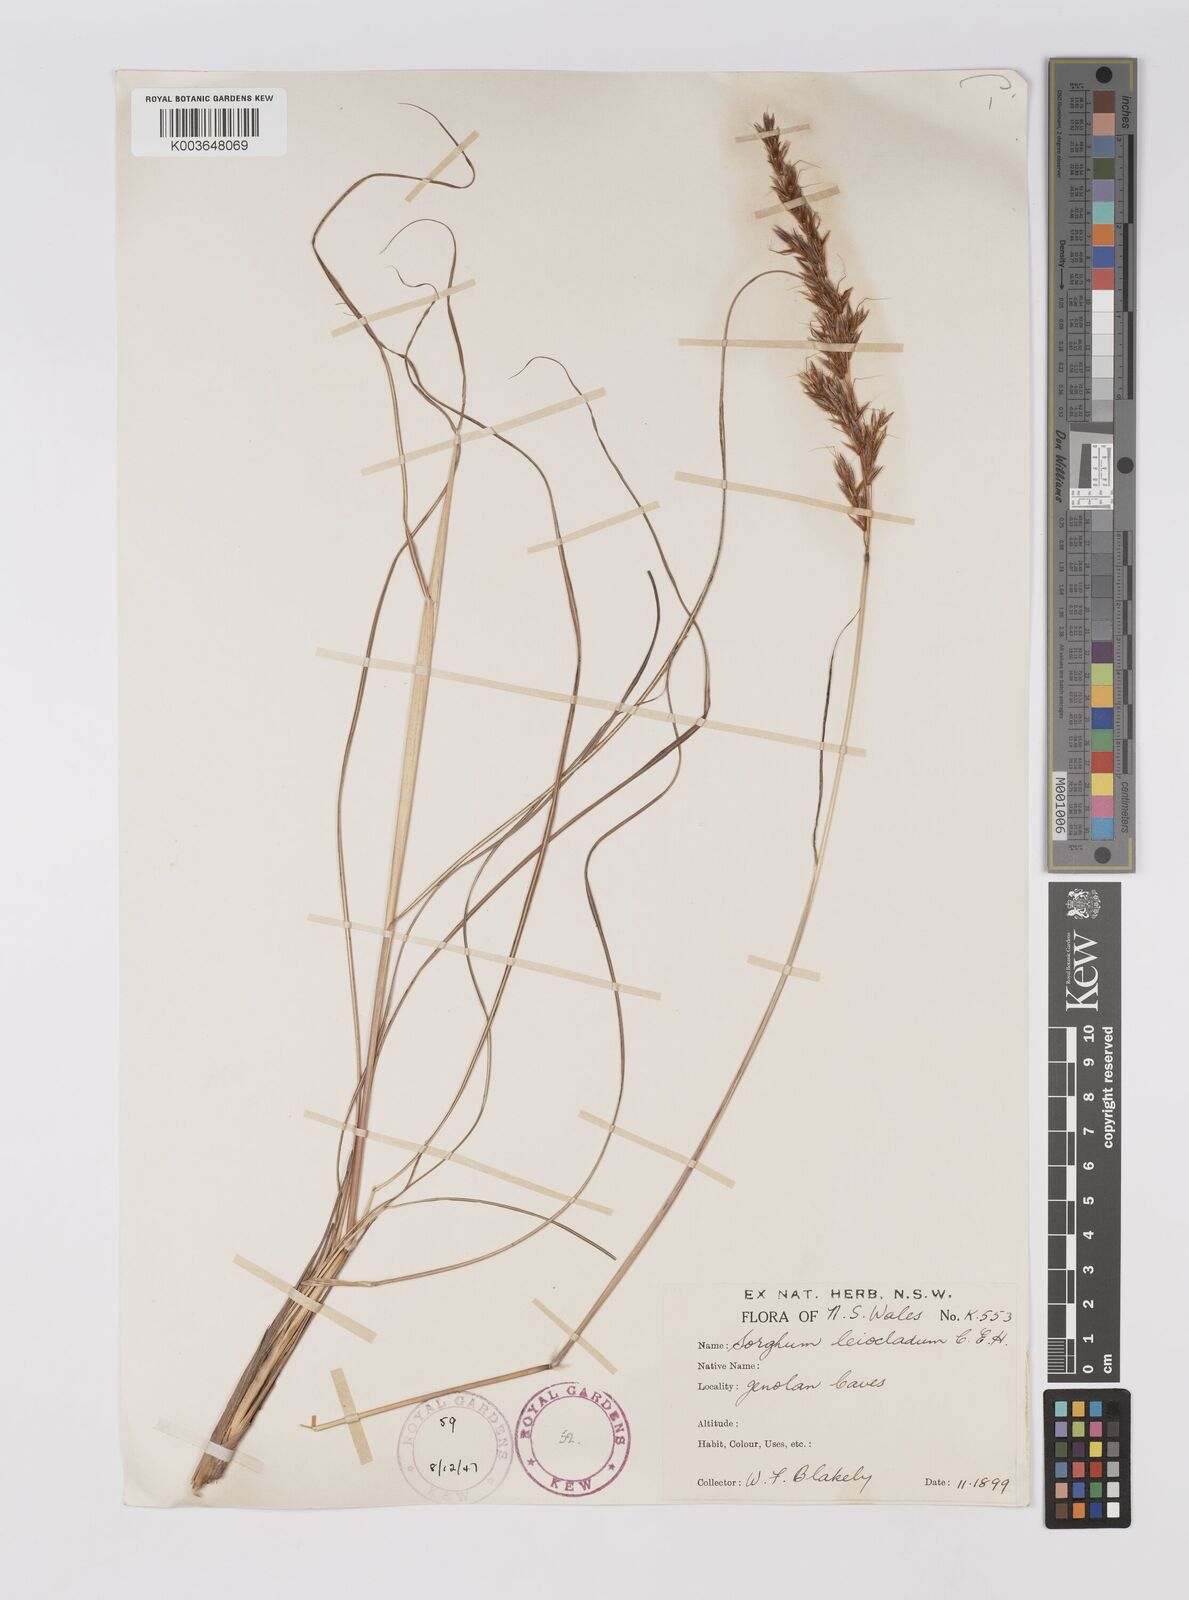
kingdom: Plantae
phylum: Tracheophyta
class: Liliopsida
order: Poales
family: Poaceae
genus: Sarga
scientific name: Sarga leioclada
